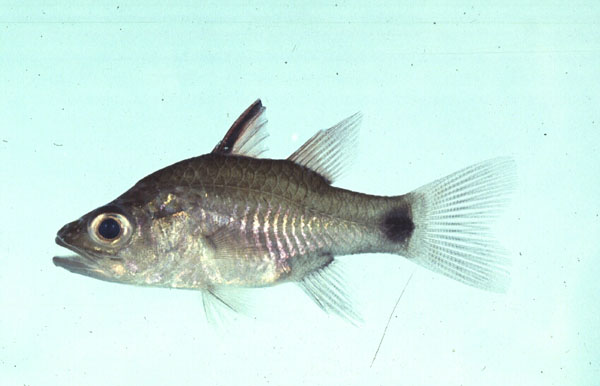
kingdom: Animalia
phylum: Chordata
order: Perciformes
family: Apogonidae
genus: Yarica
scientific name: Yarica hyalosoma
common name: Hump-backed cardinalfish
